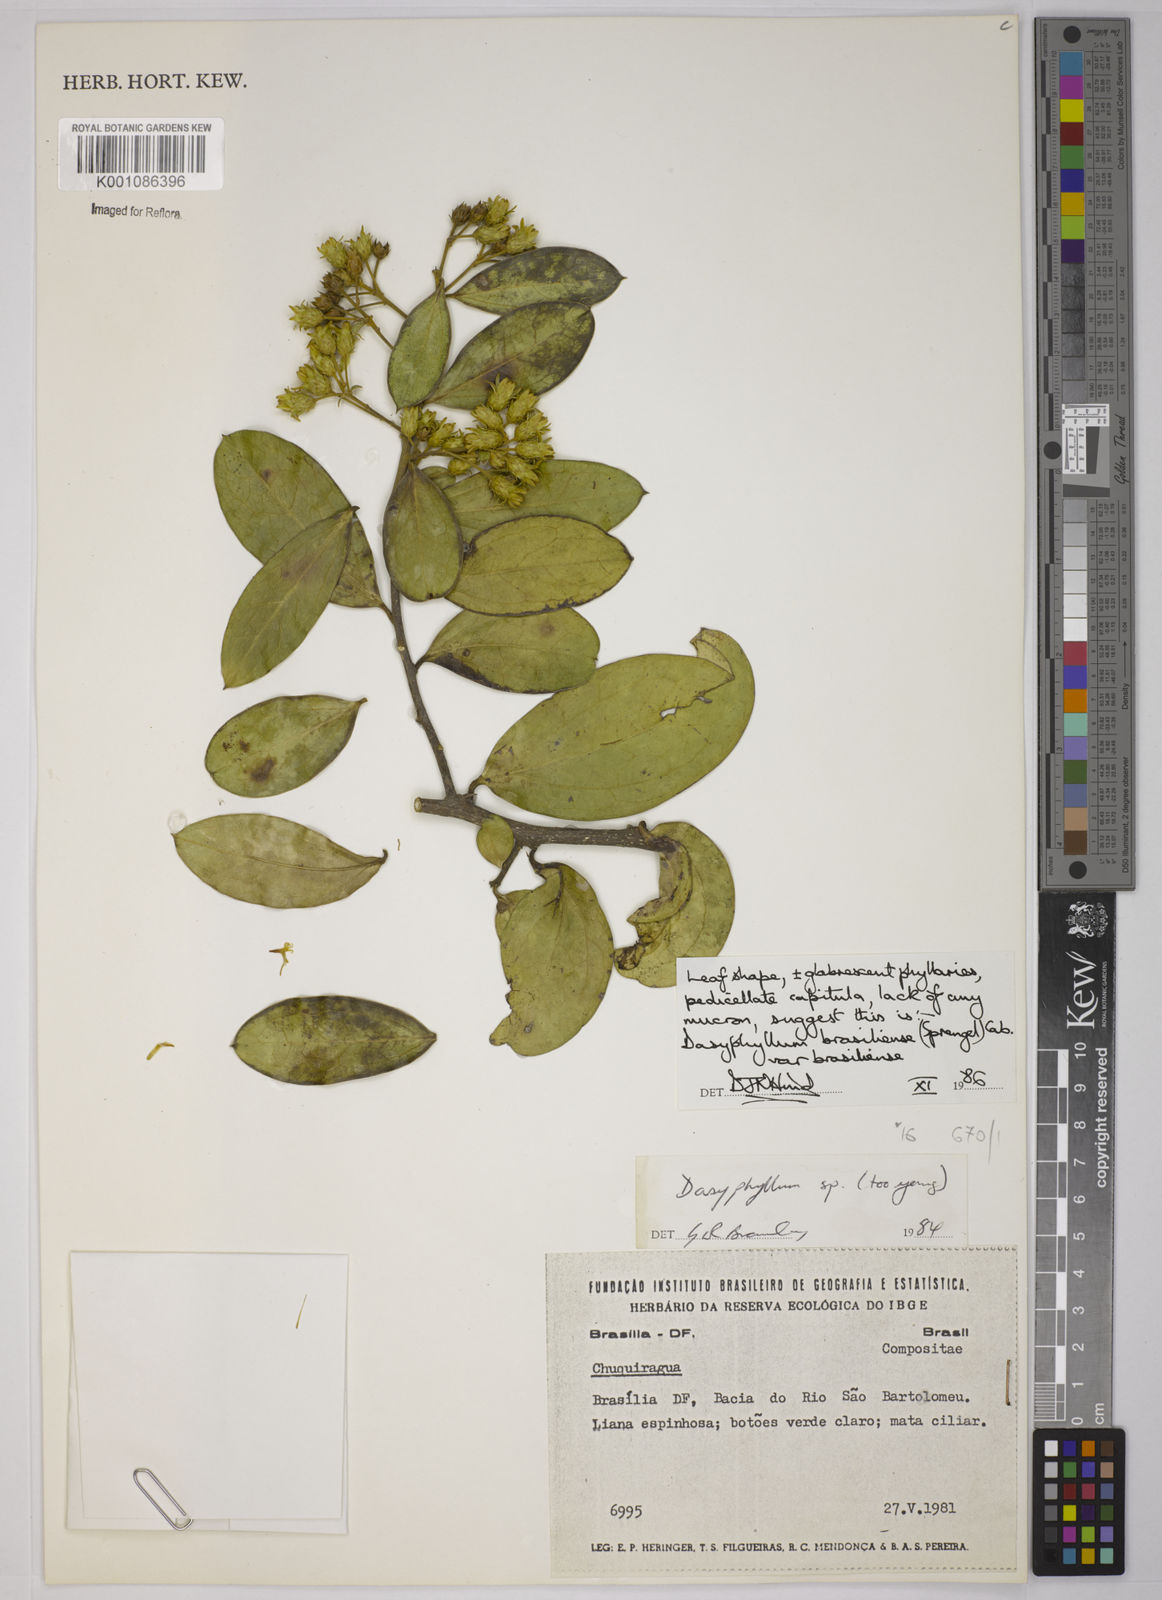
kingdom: Plantae
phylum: Tracheophyta
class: Magnoliopsida
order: Asterales
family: Asteraceae
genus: Dasyphyllum
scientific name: Dasyphyllum brasiliense
